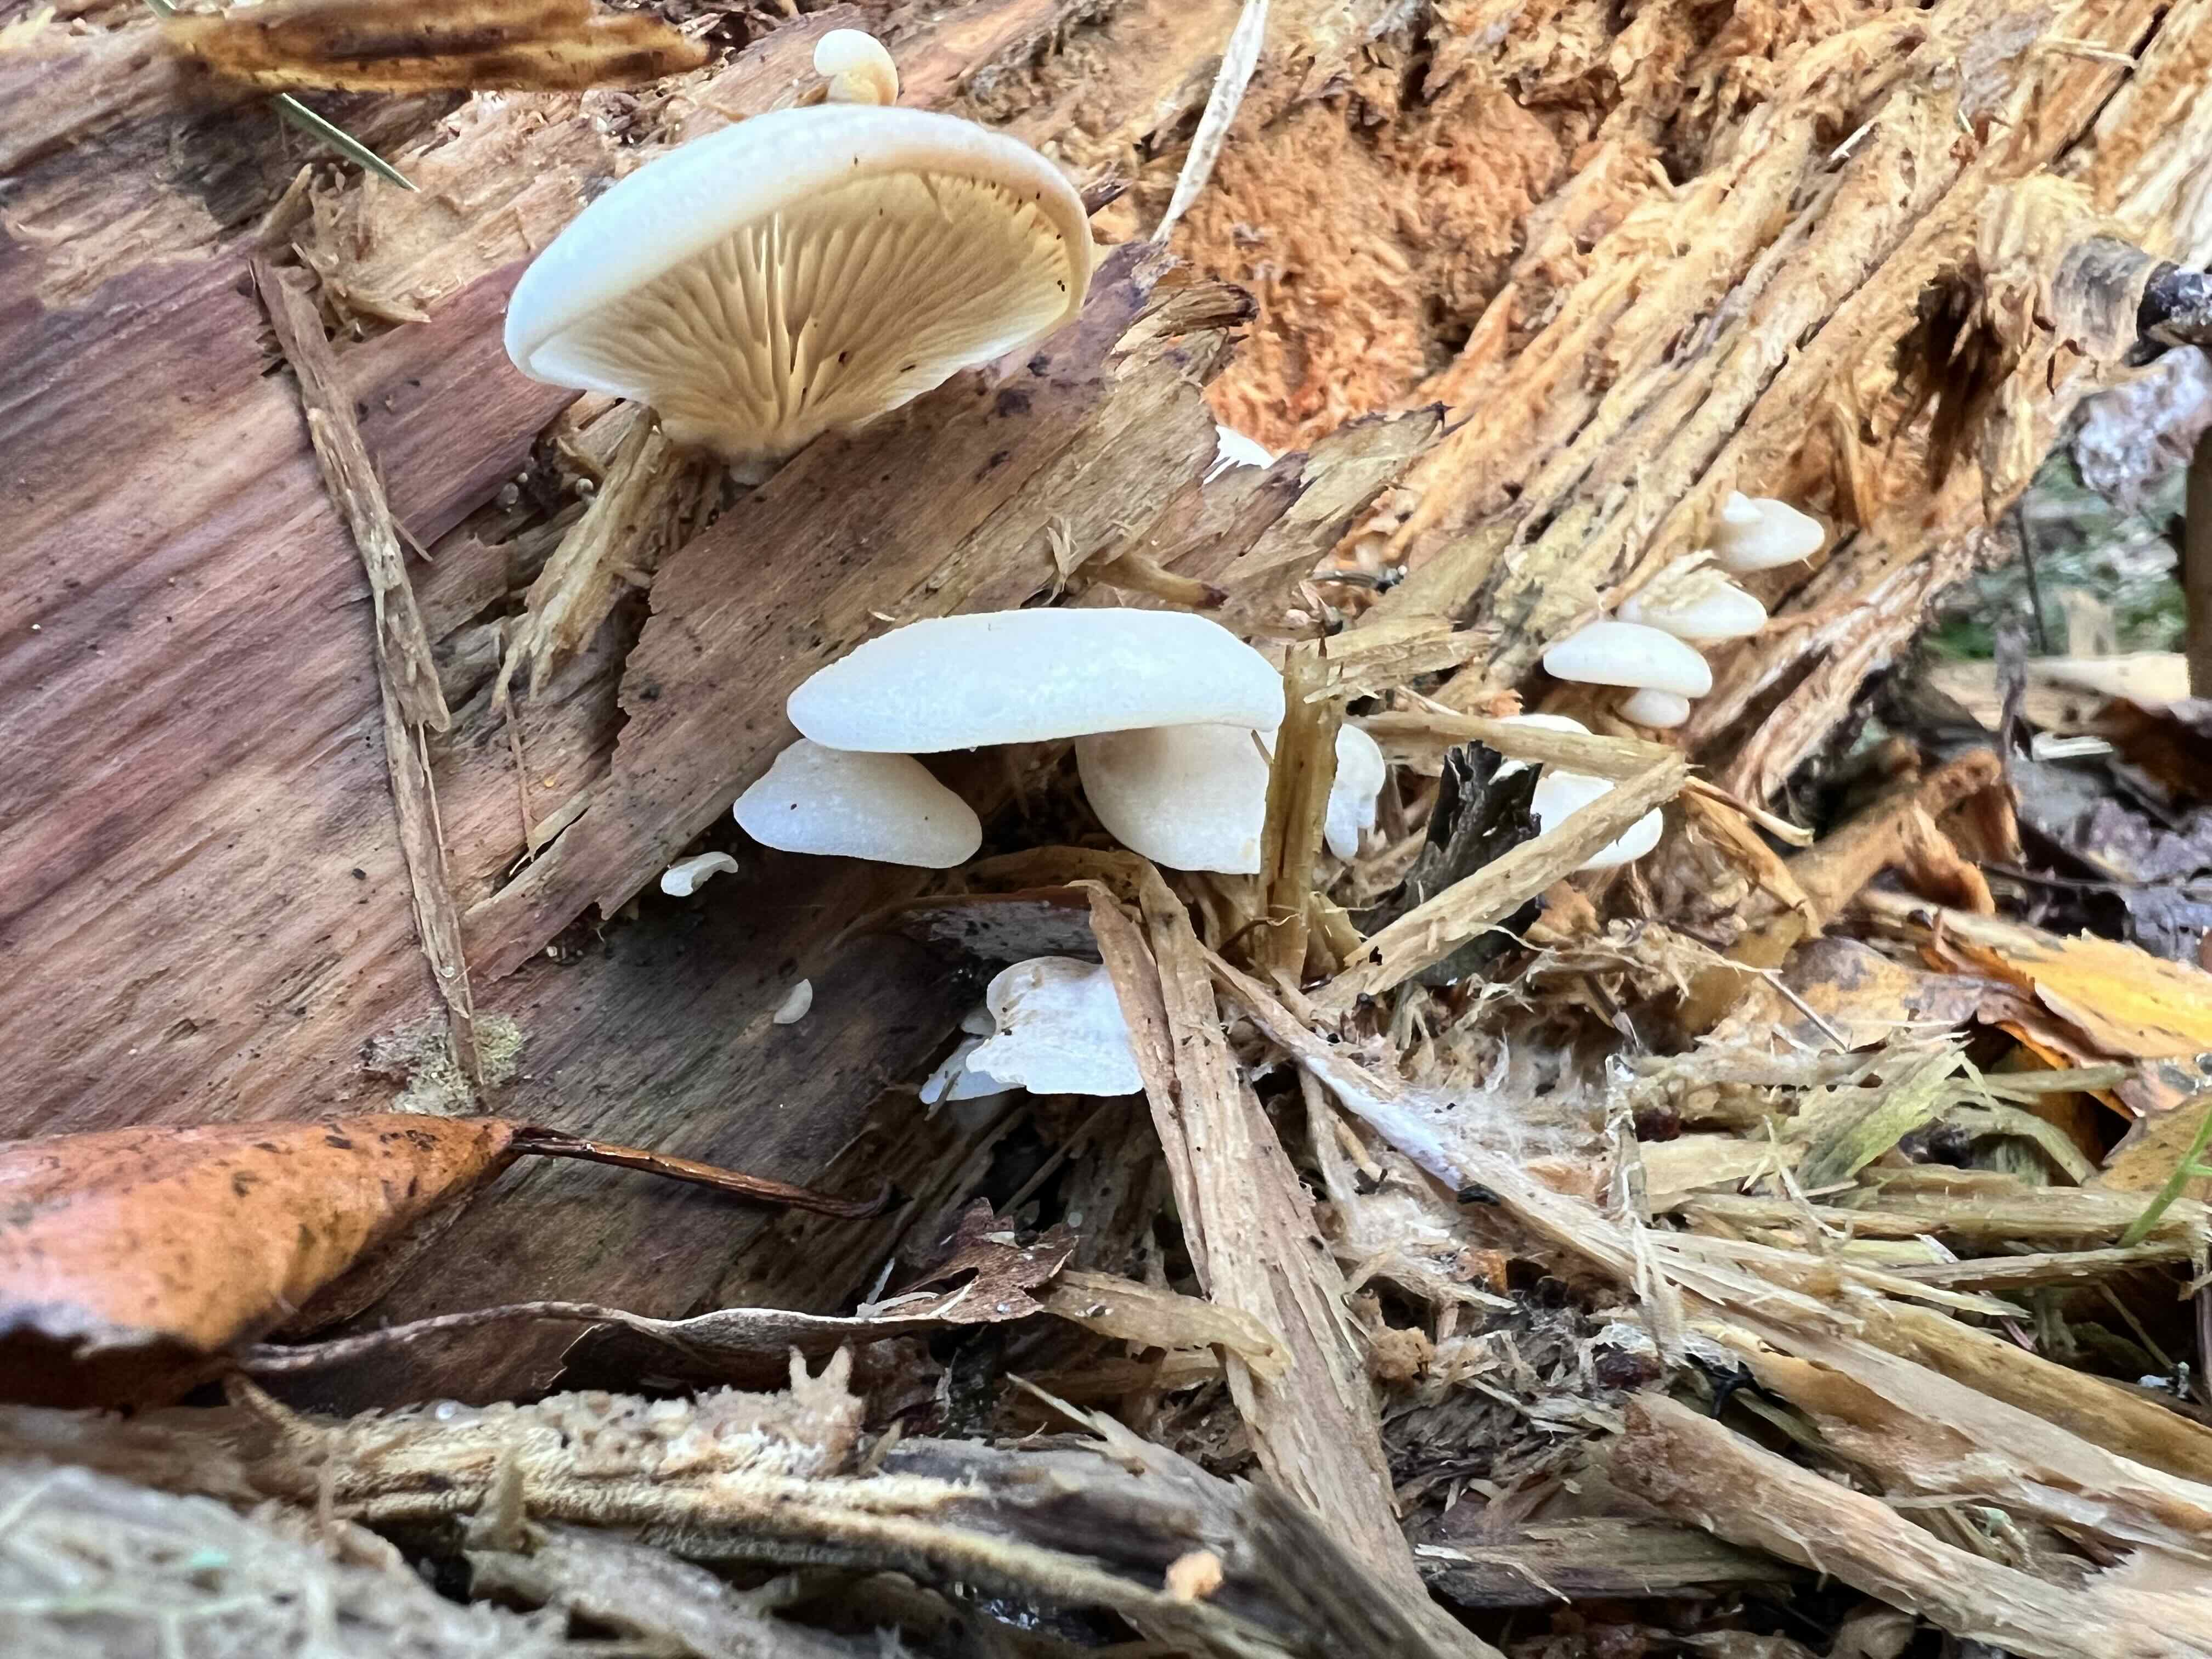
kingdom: Fungi
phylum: Basidiomycota
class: Agaricomycetes
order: Agaricales
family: Crepidotaceae
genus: Crepidotus
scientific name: Crepidotus
